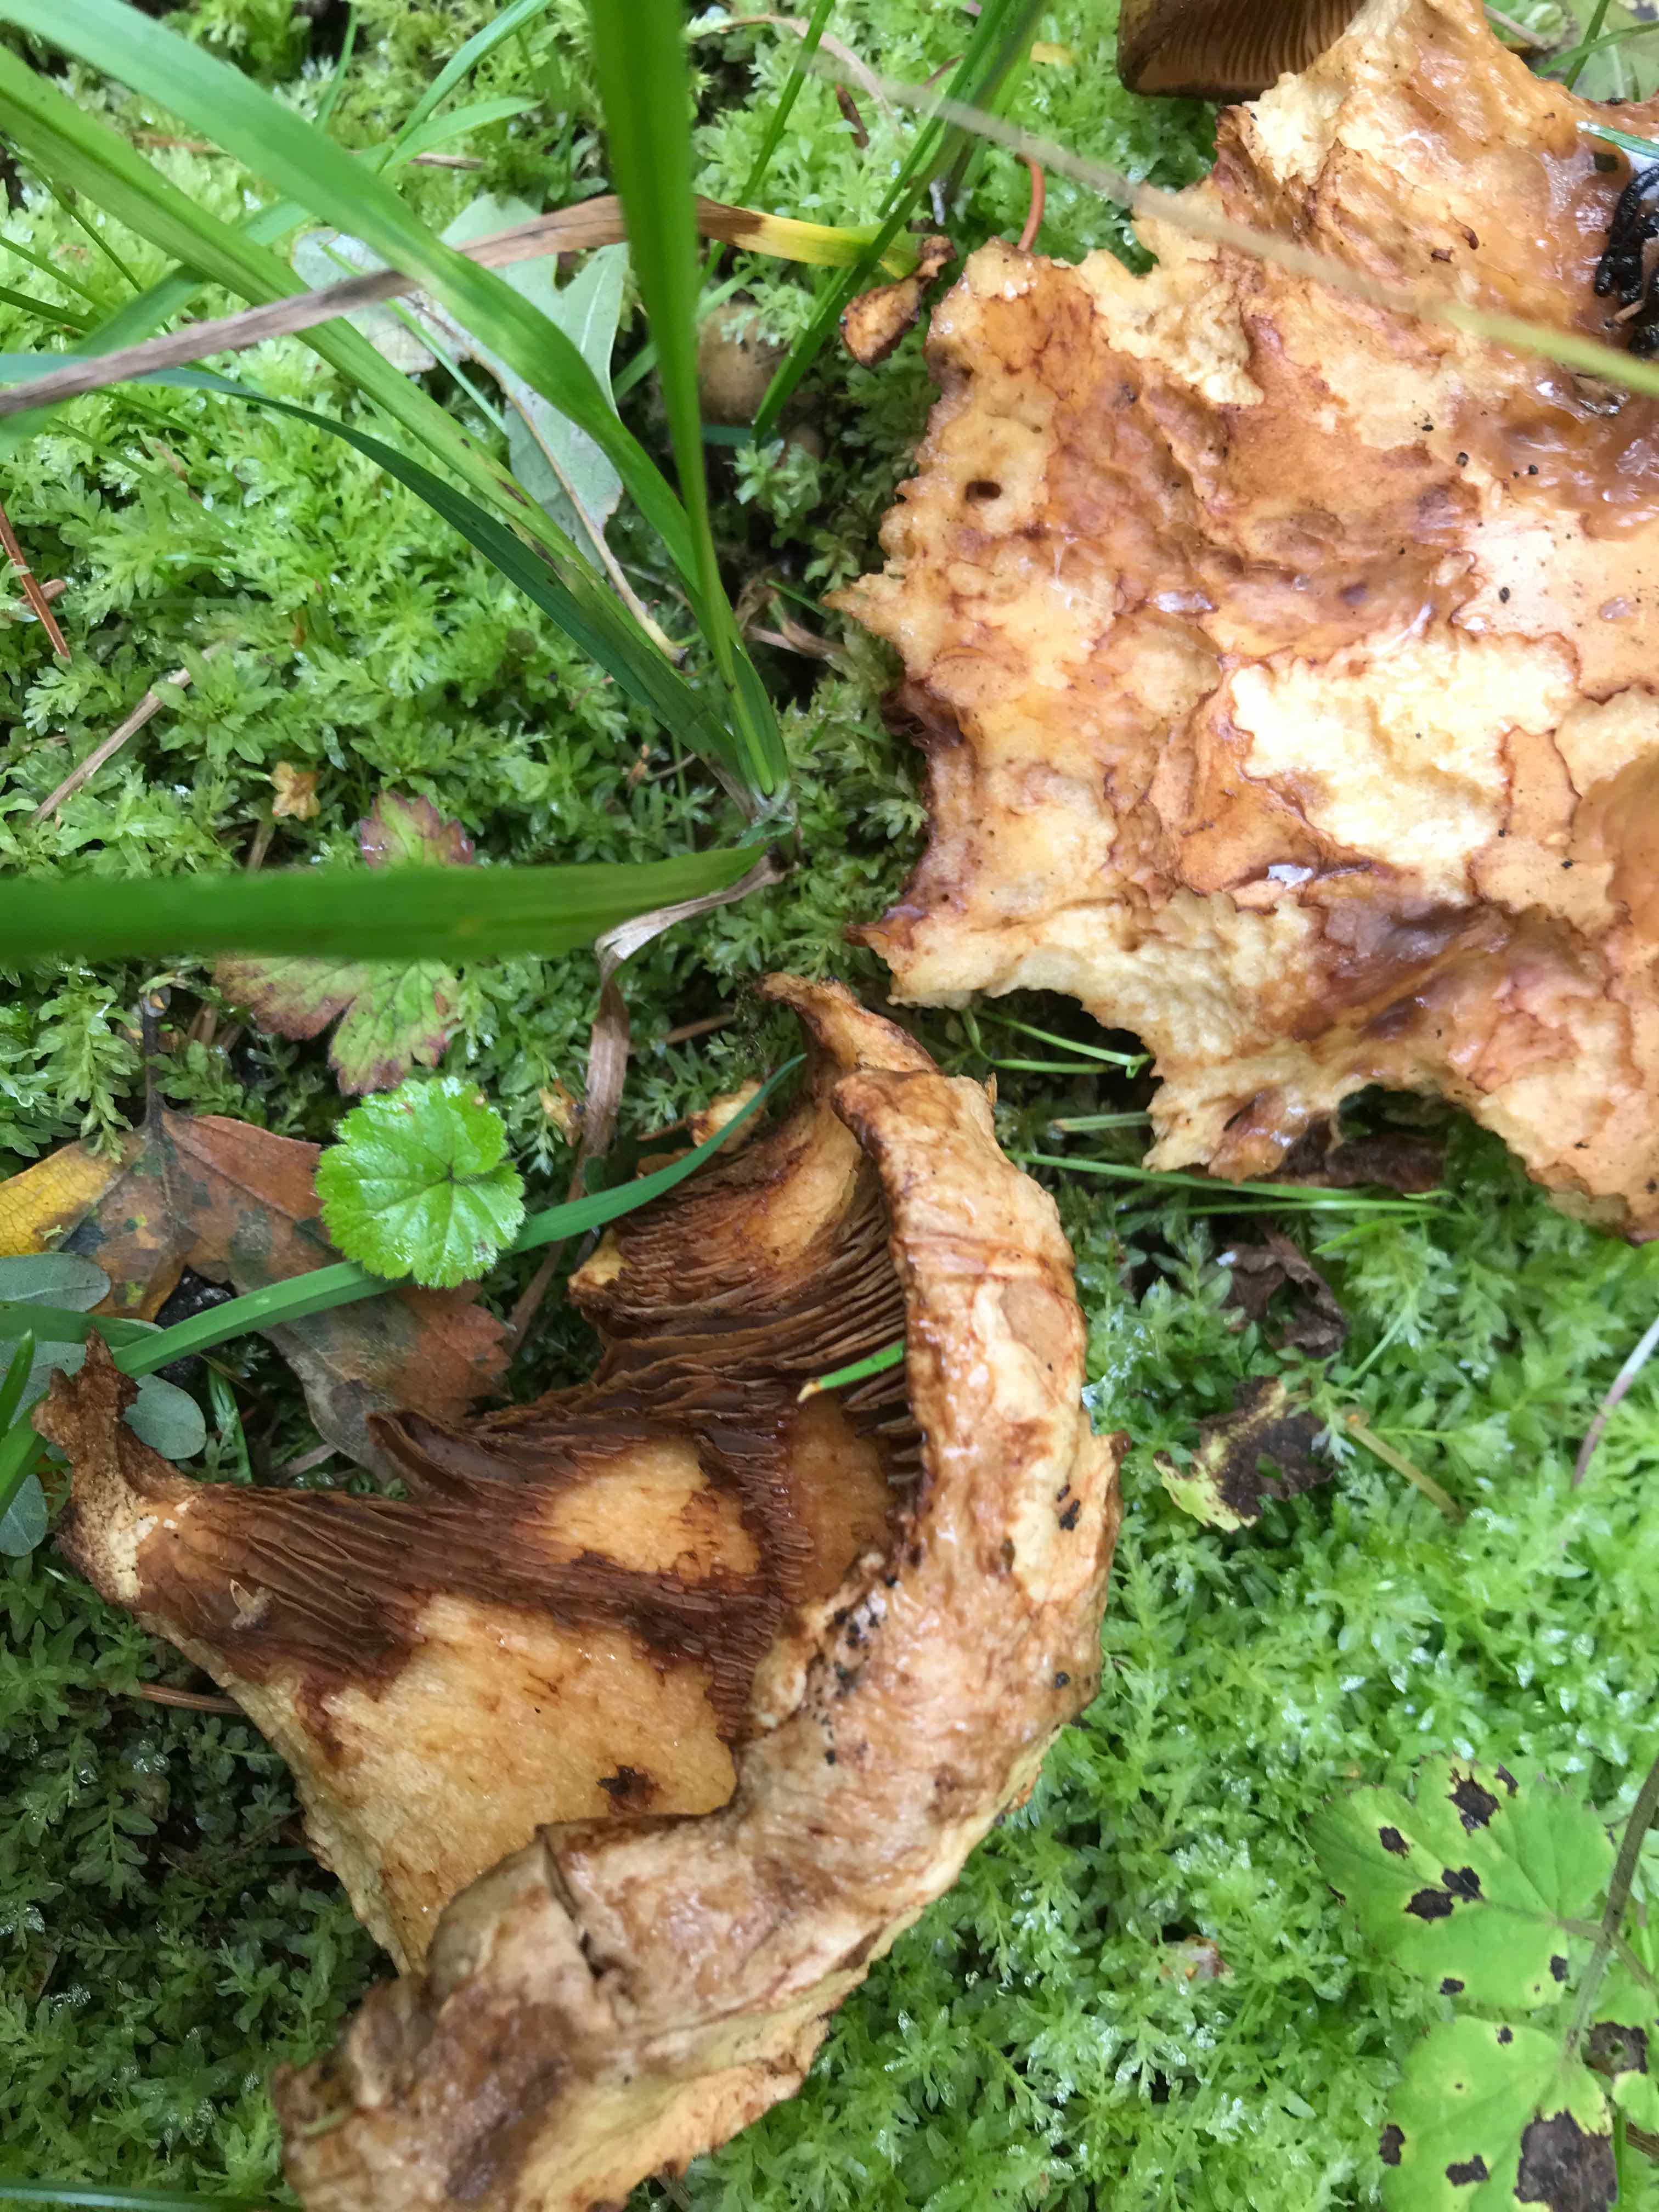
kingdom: Fungi
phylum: Basidiomycota
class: Agaricomycetes
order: Boletales
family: Paxillaceae
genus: Paxillus
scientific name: Paxillus rubicundulus
